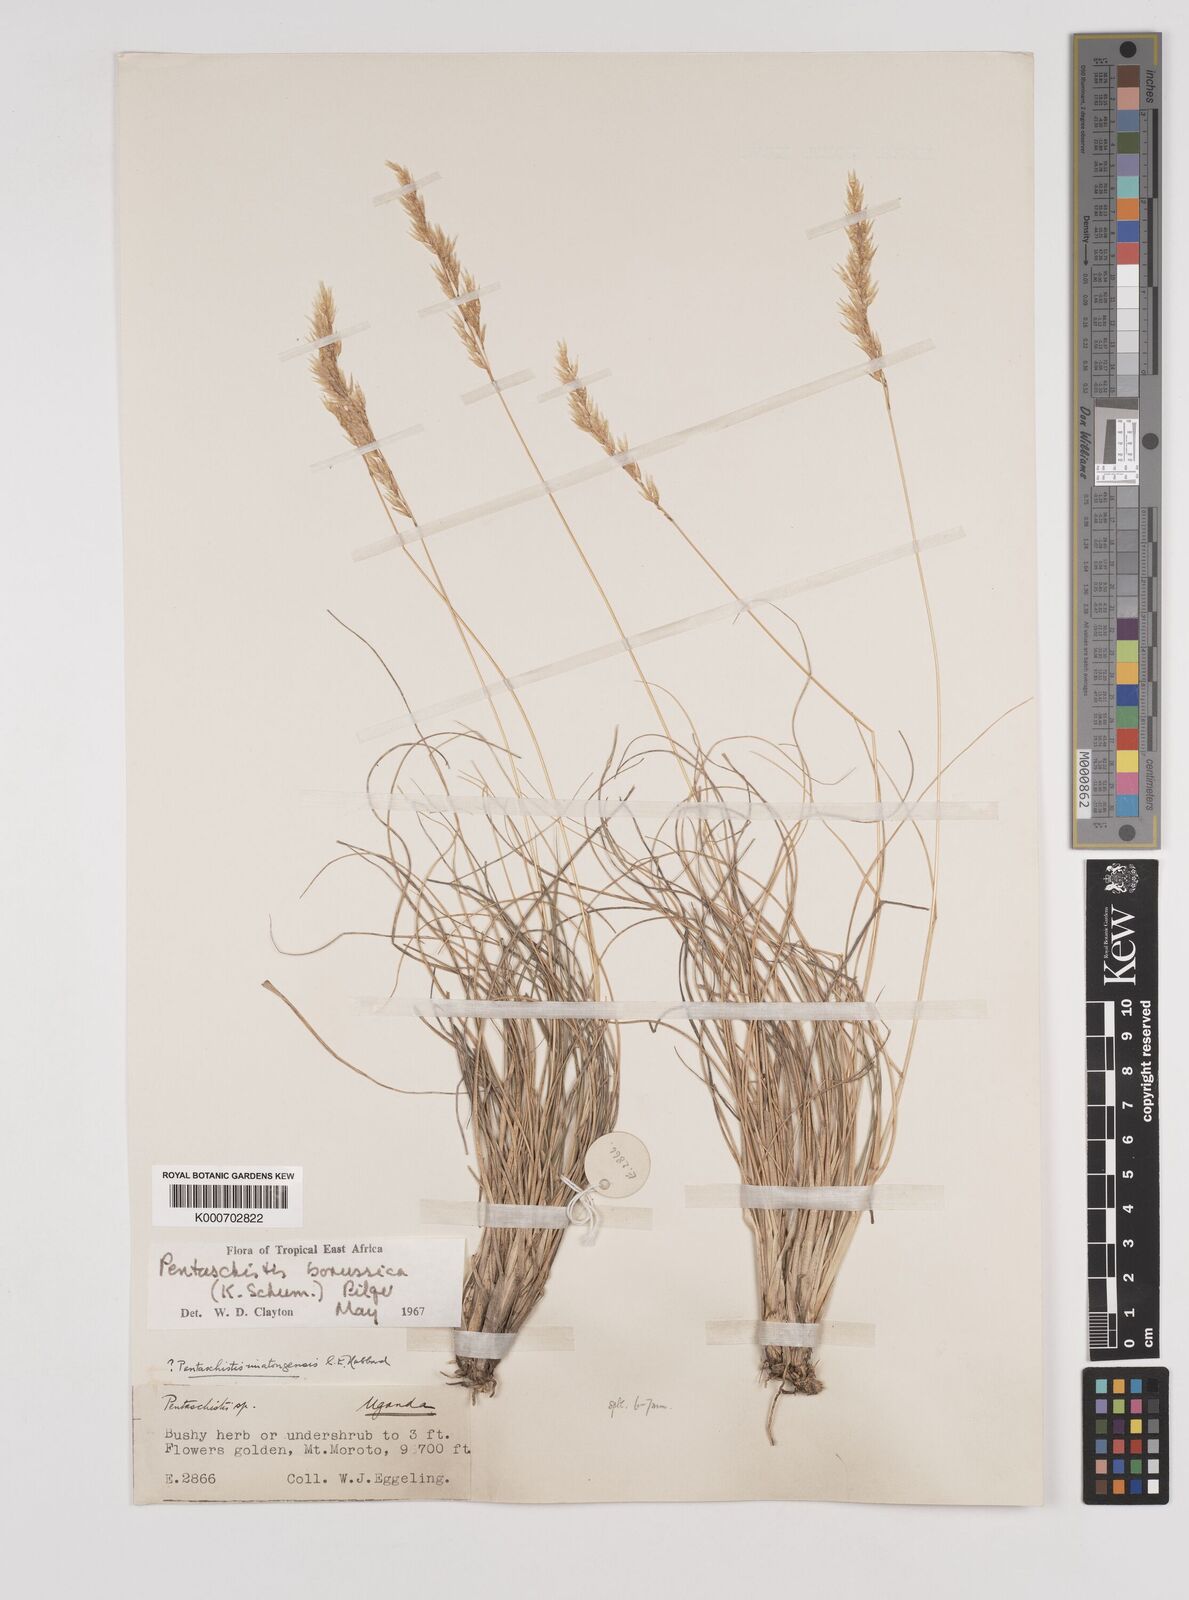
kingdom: Plantae
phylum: Tracheophyta
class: Liliopsida
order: Poales
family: Poaceae
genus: Pentameris
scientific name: Pentameris pictigluma
